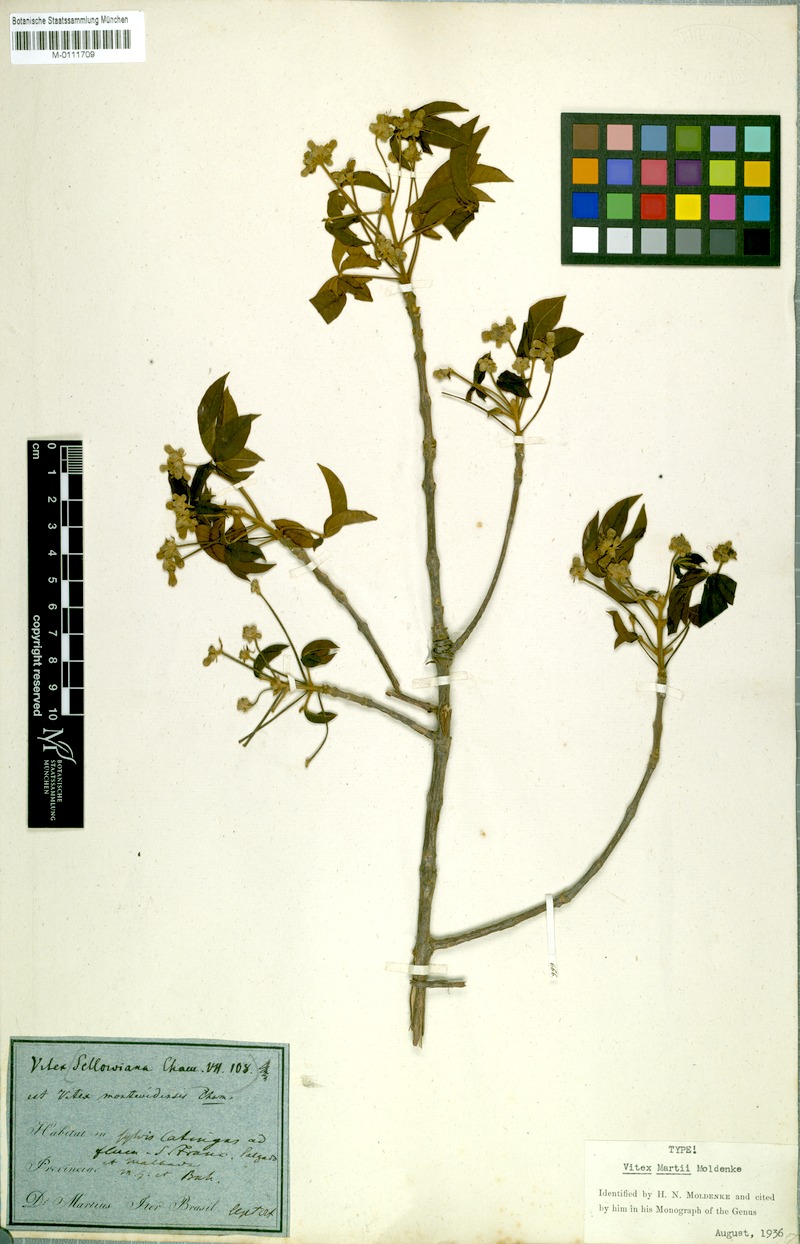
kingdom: Plantae
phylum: Tracheophyta
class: Magnoliopsida
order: Lamiales
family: Lamiaceae
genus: Vitex
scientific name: Vitex martii
